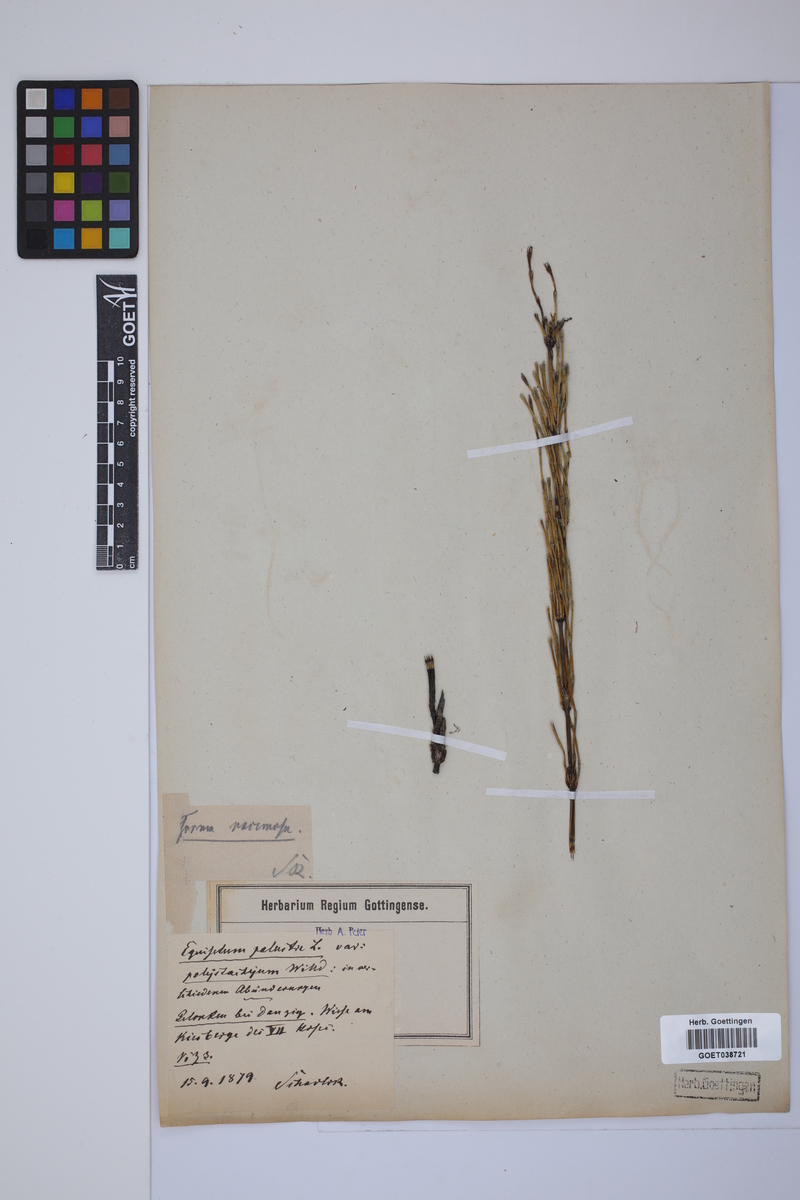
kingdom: Plantae
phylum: Tracheophyta
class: Polypodiopsida
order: Equisetales
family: Equisetaceae
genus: Equisetum
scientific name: Equisetum palustre
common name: Marsh horsetail
